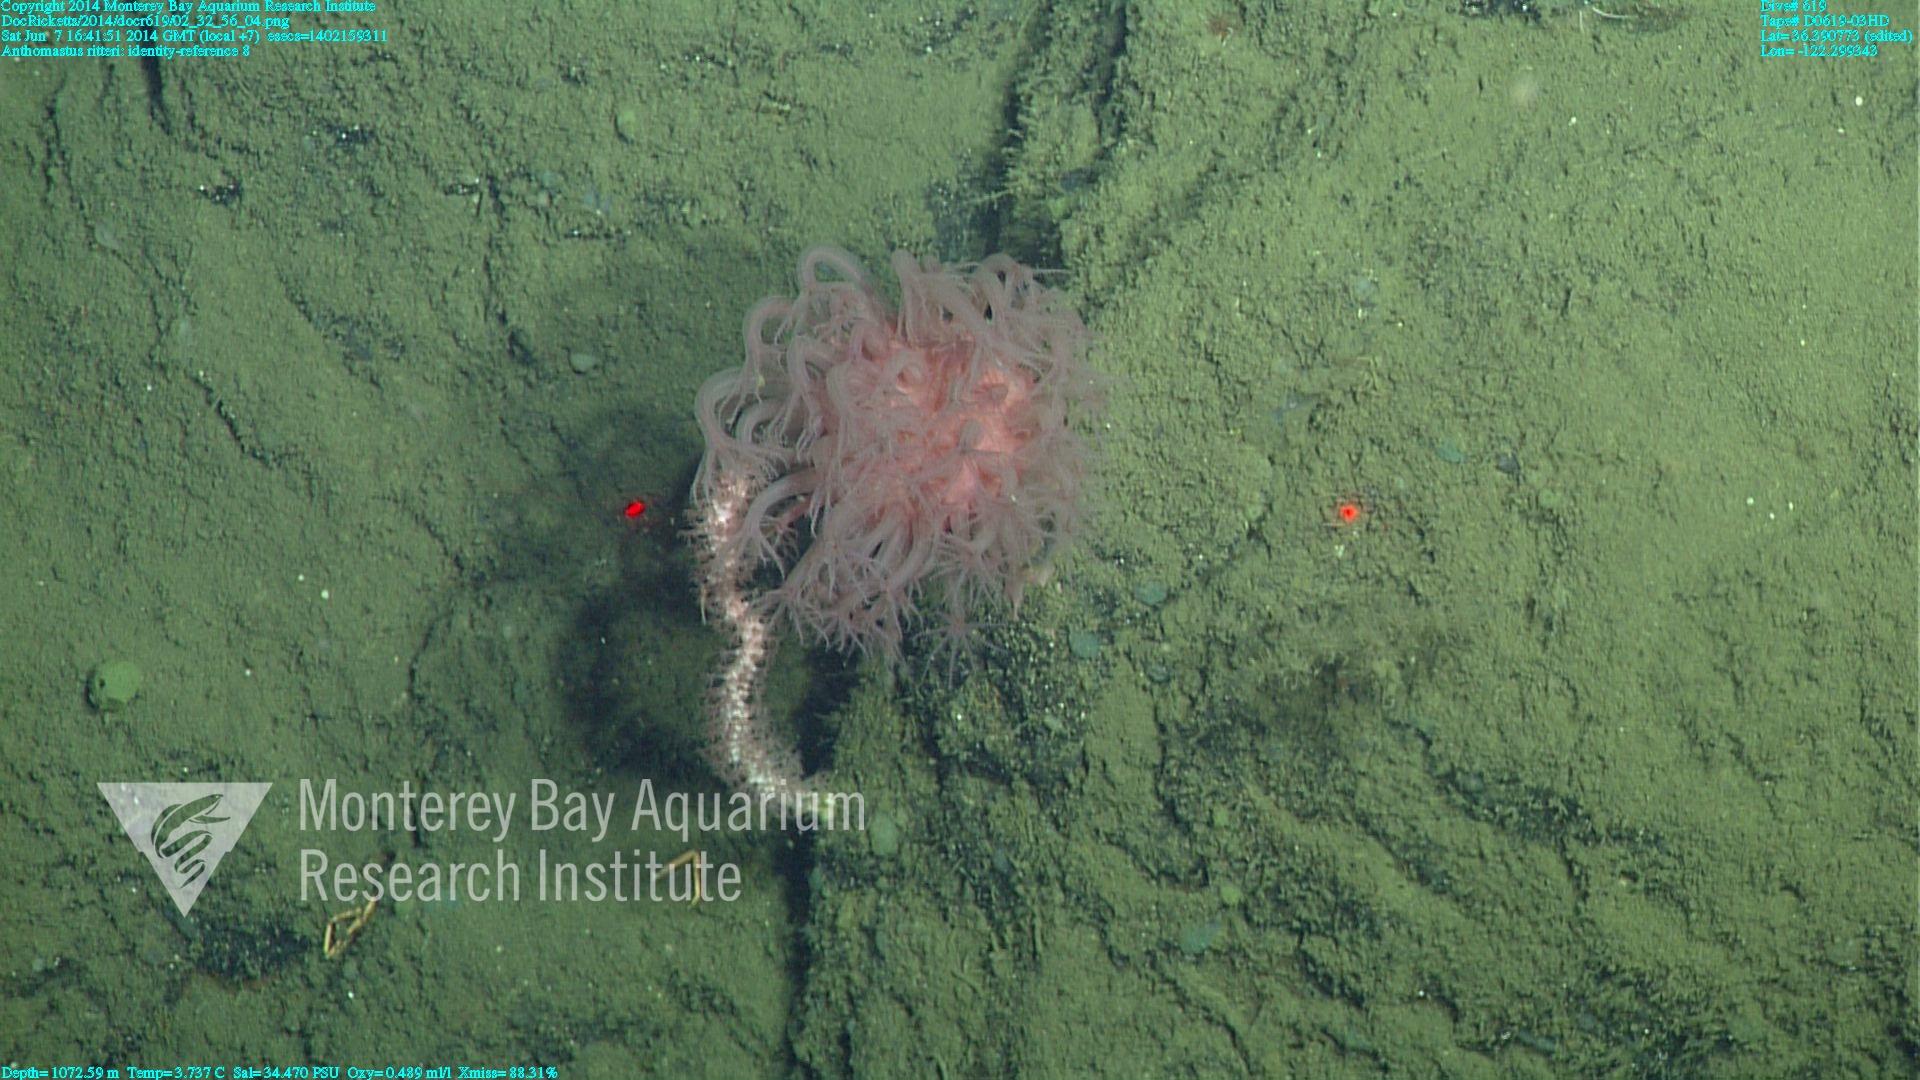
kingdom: Animalia
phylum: Cnidaria
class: Anthozoa
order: Scleralcyonacea
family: Coralliidae
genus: Heteropolypus
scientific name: Heteropolypus ritteri
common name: Ritter's soft coral
